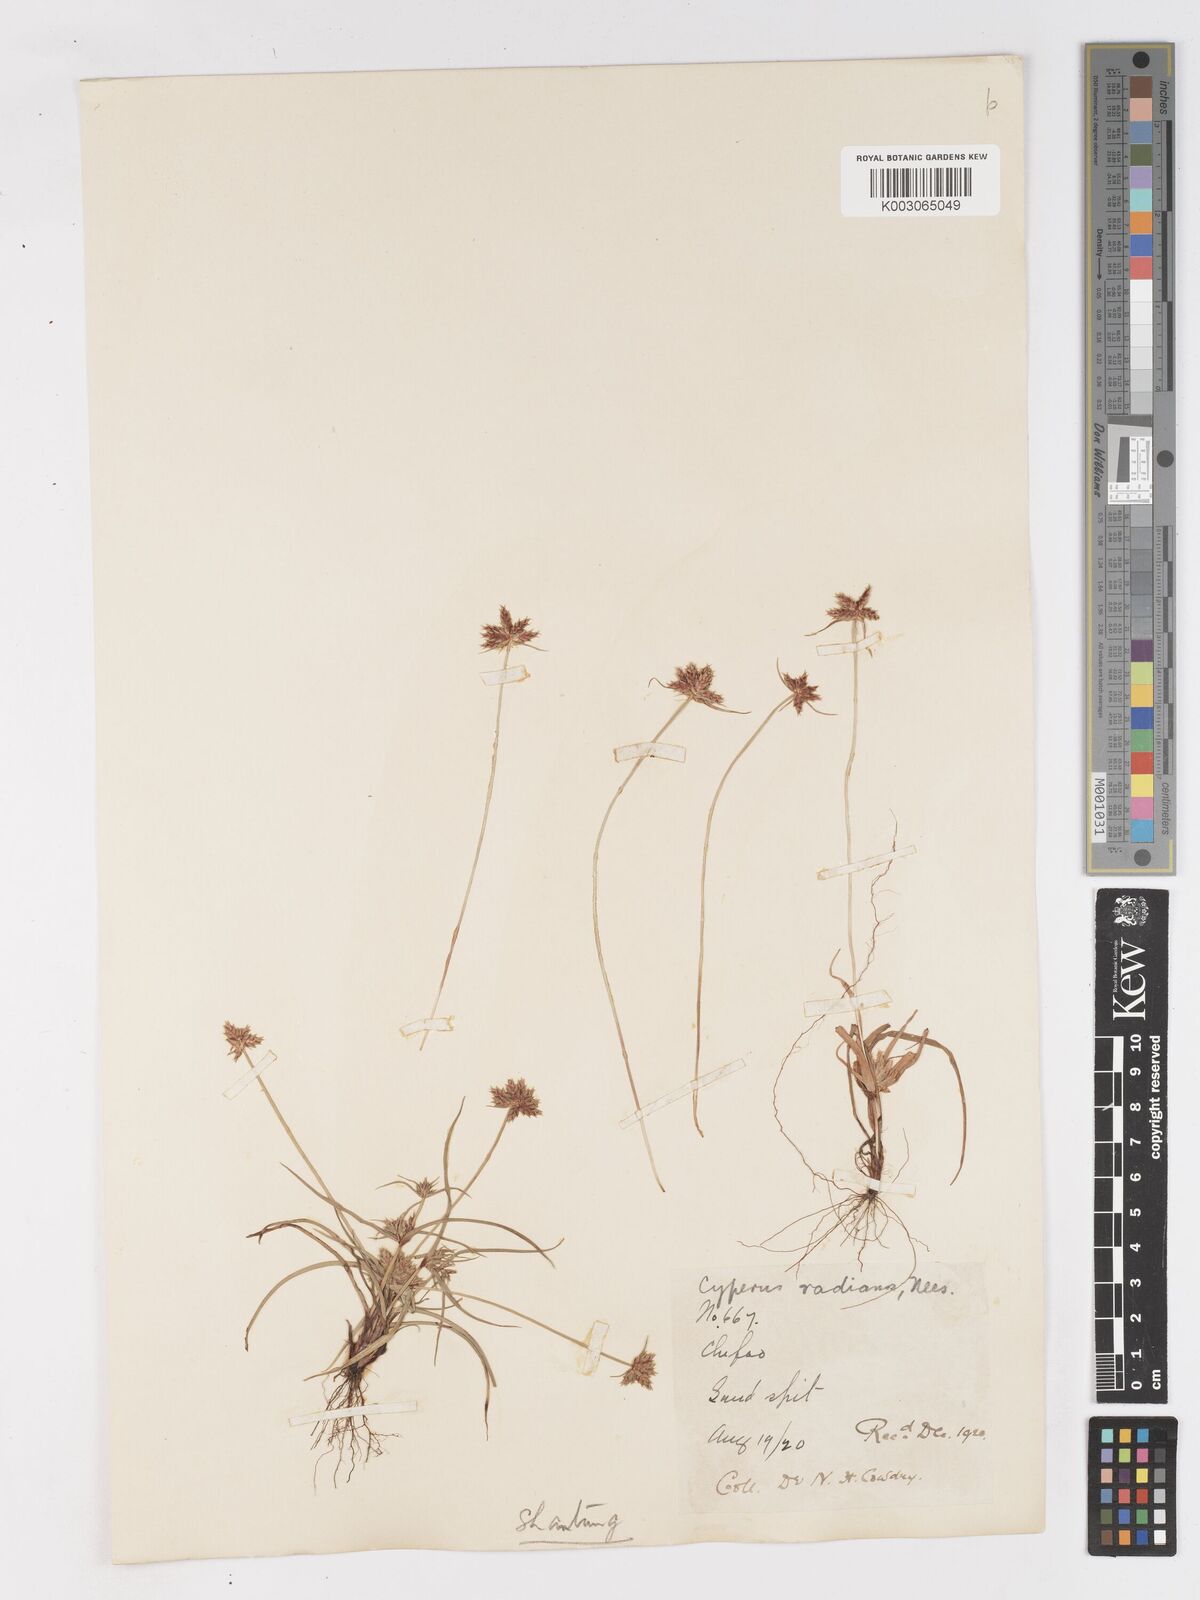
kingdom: Plantae
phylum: Tracheophyta
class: Liliopsida
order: Poales
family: Cyperaceae
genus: Cyperus
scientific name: Cyperus radians
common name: Short-stem cyperus
